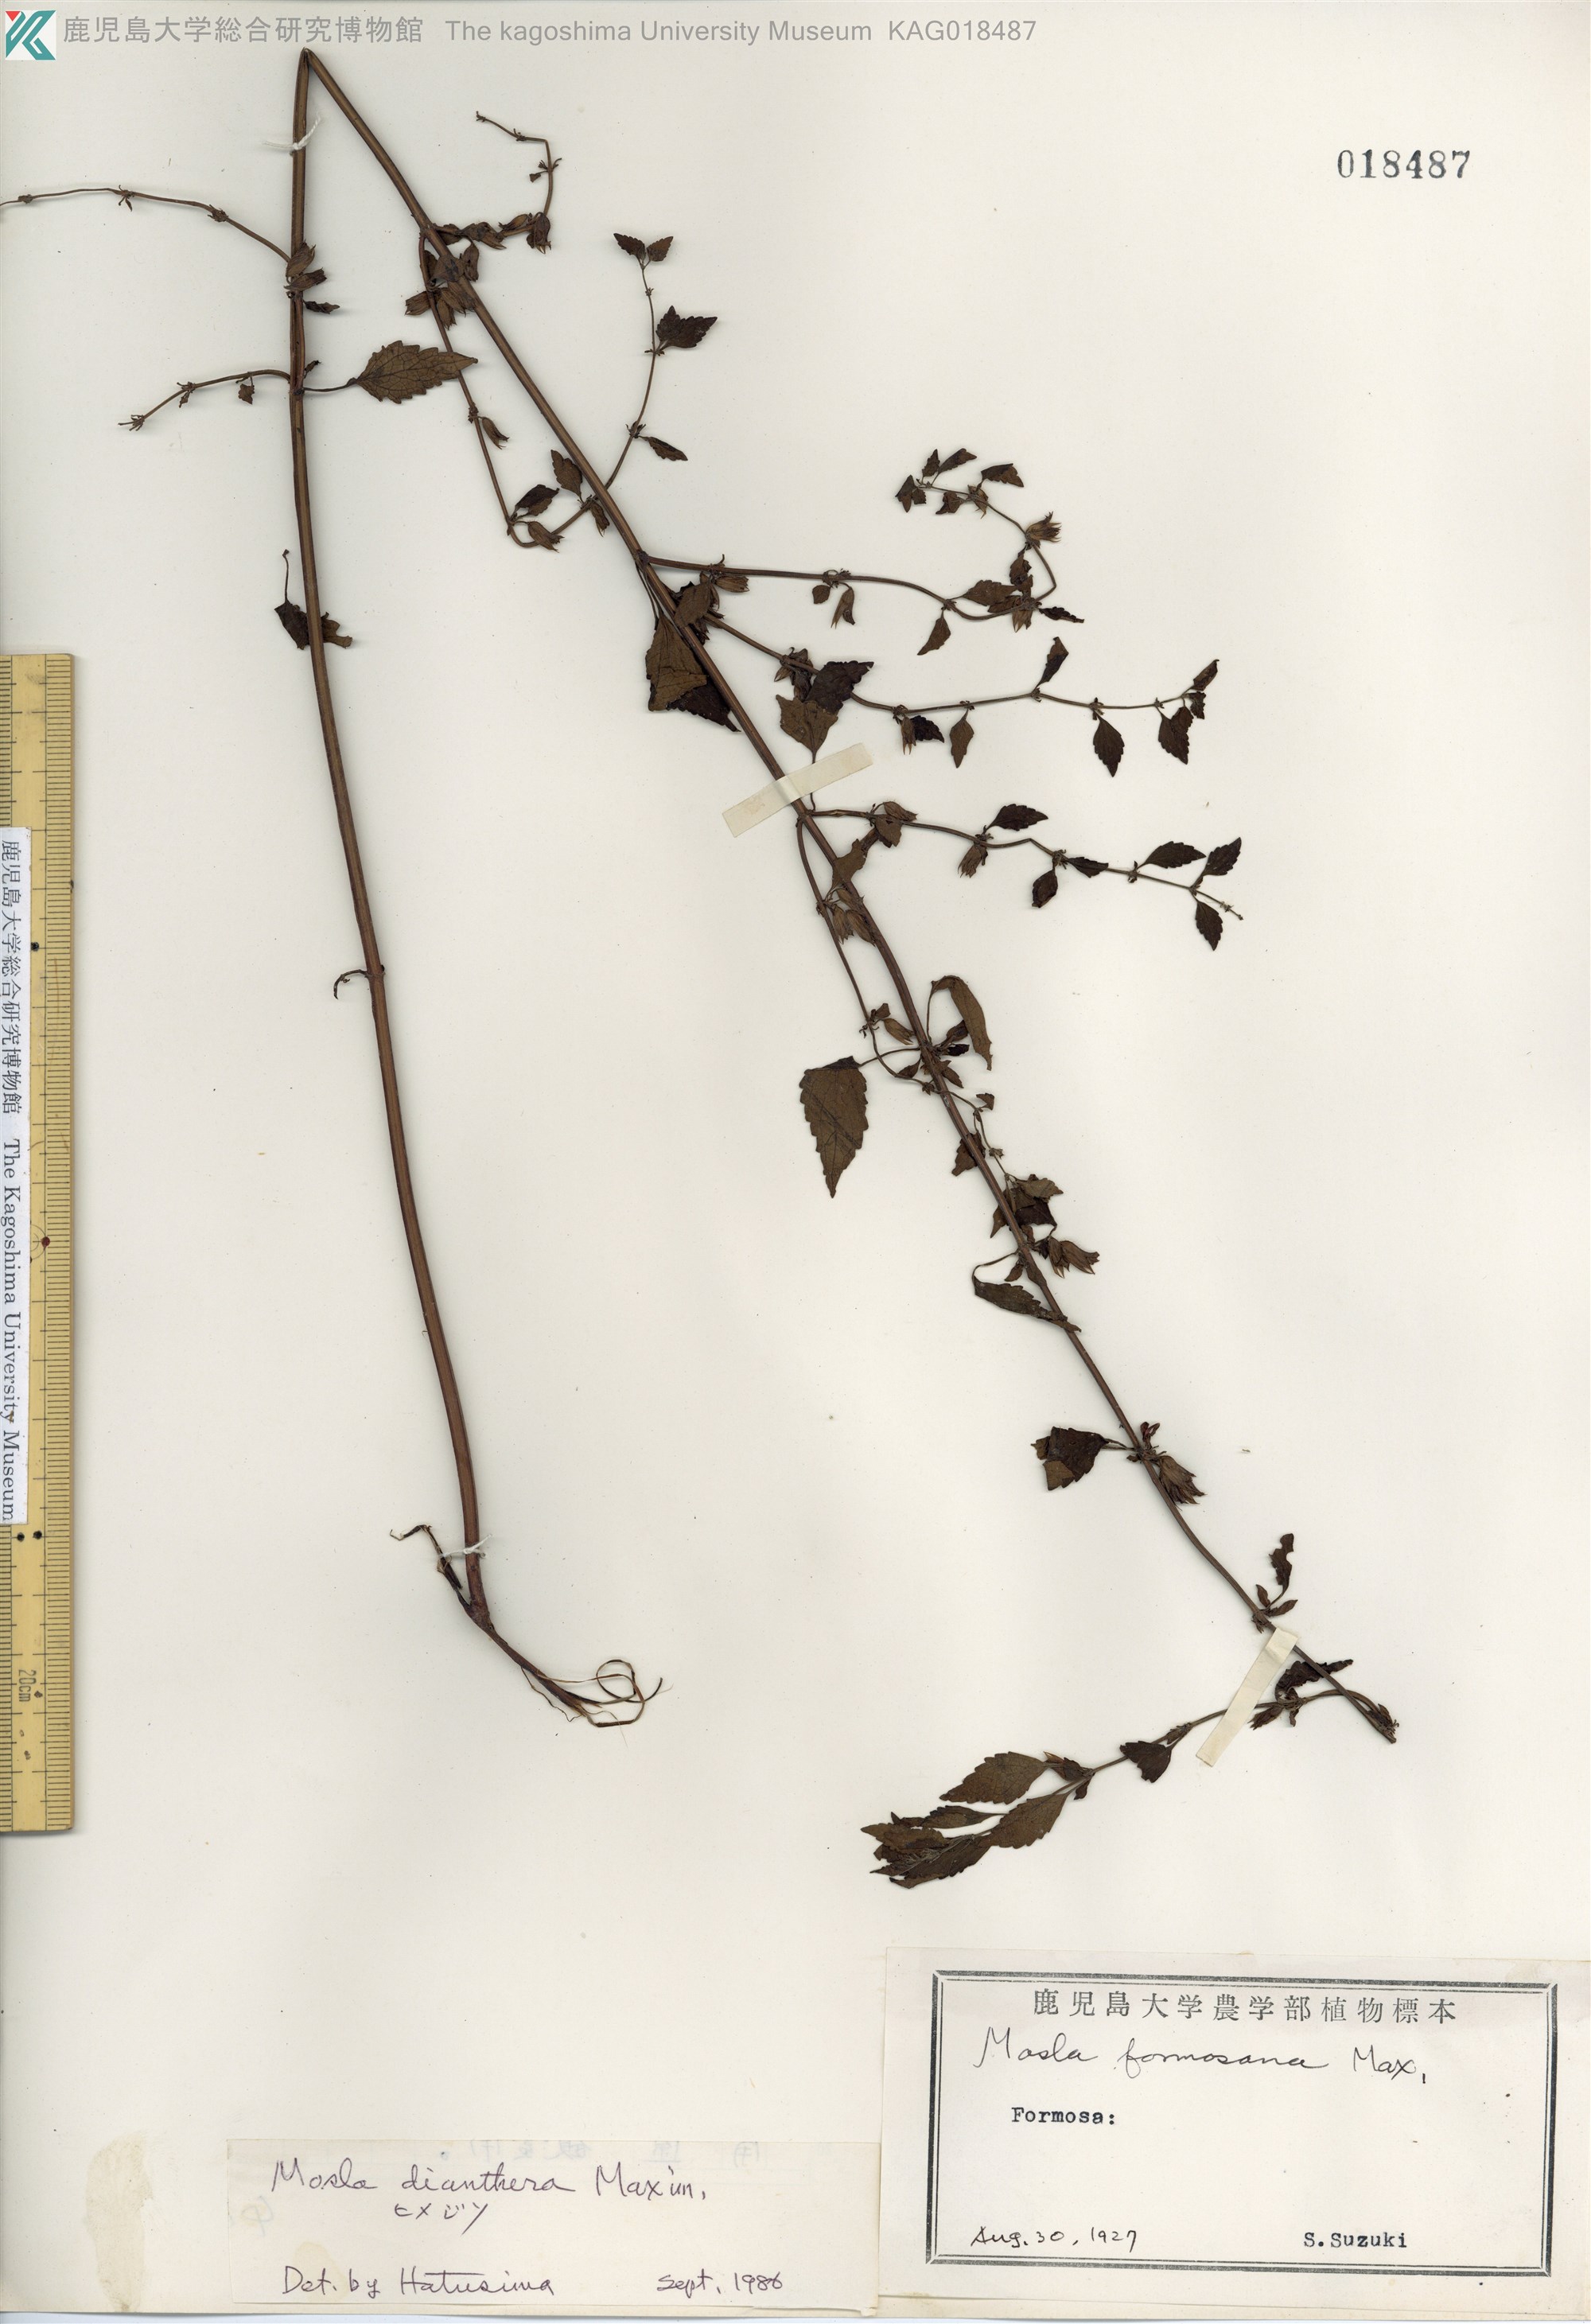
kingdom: Plantae
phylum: Tracheophyta
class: Magnoliopsida
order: Lamiales
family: Lamiaceae
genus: Mosla
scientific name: Mosla dianthera
